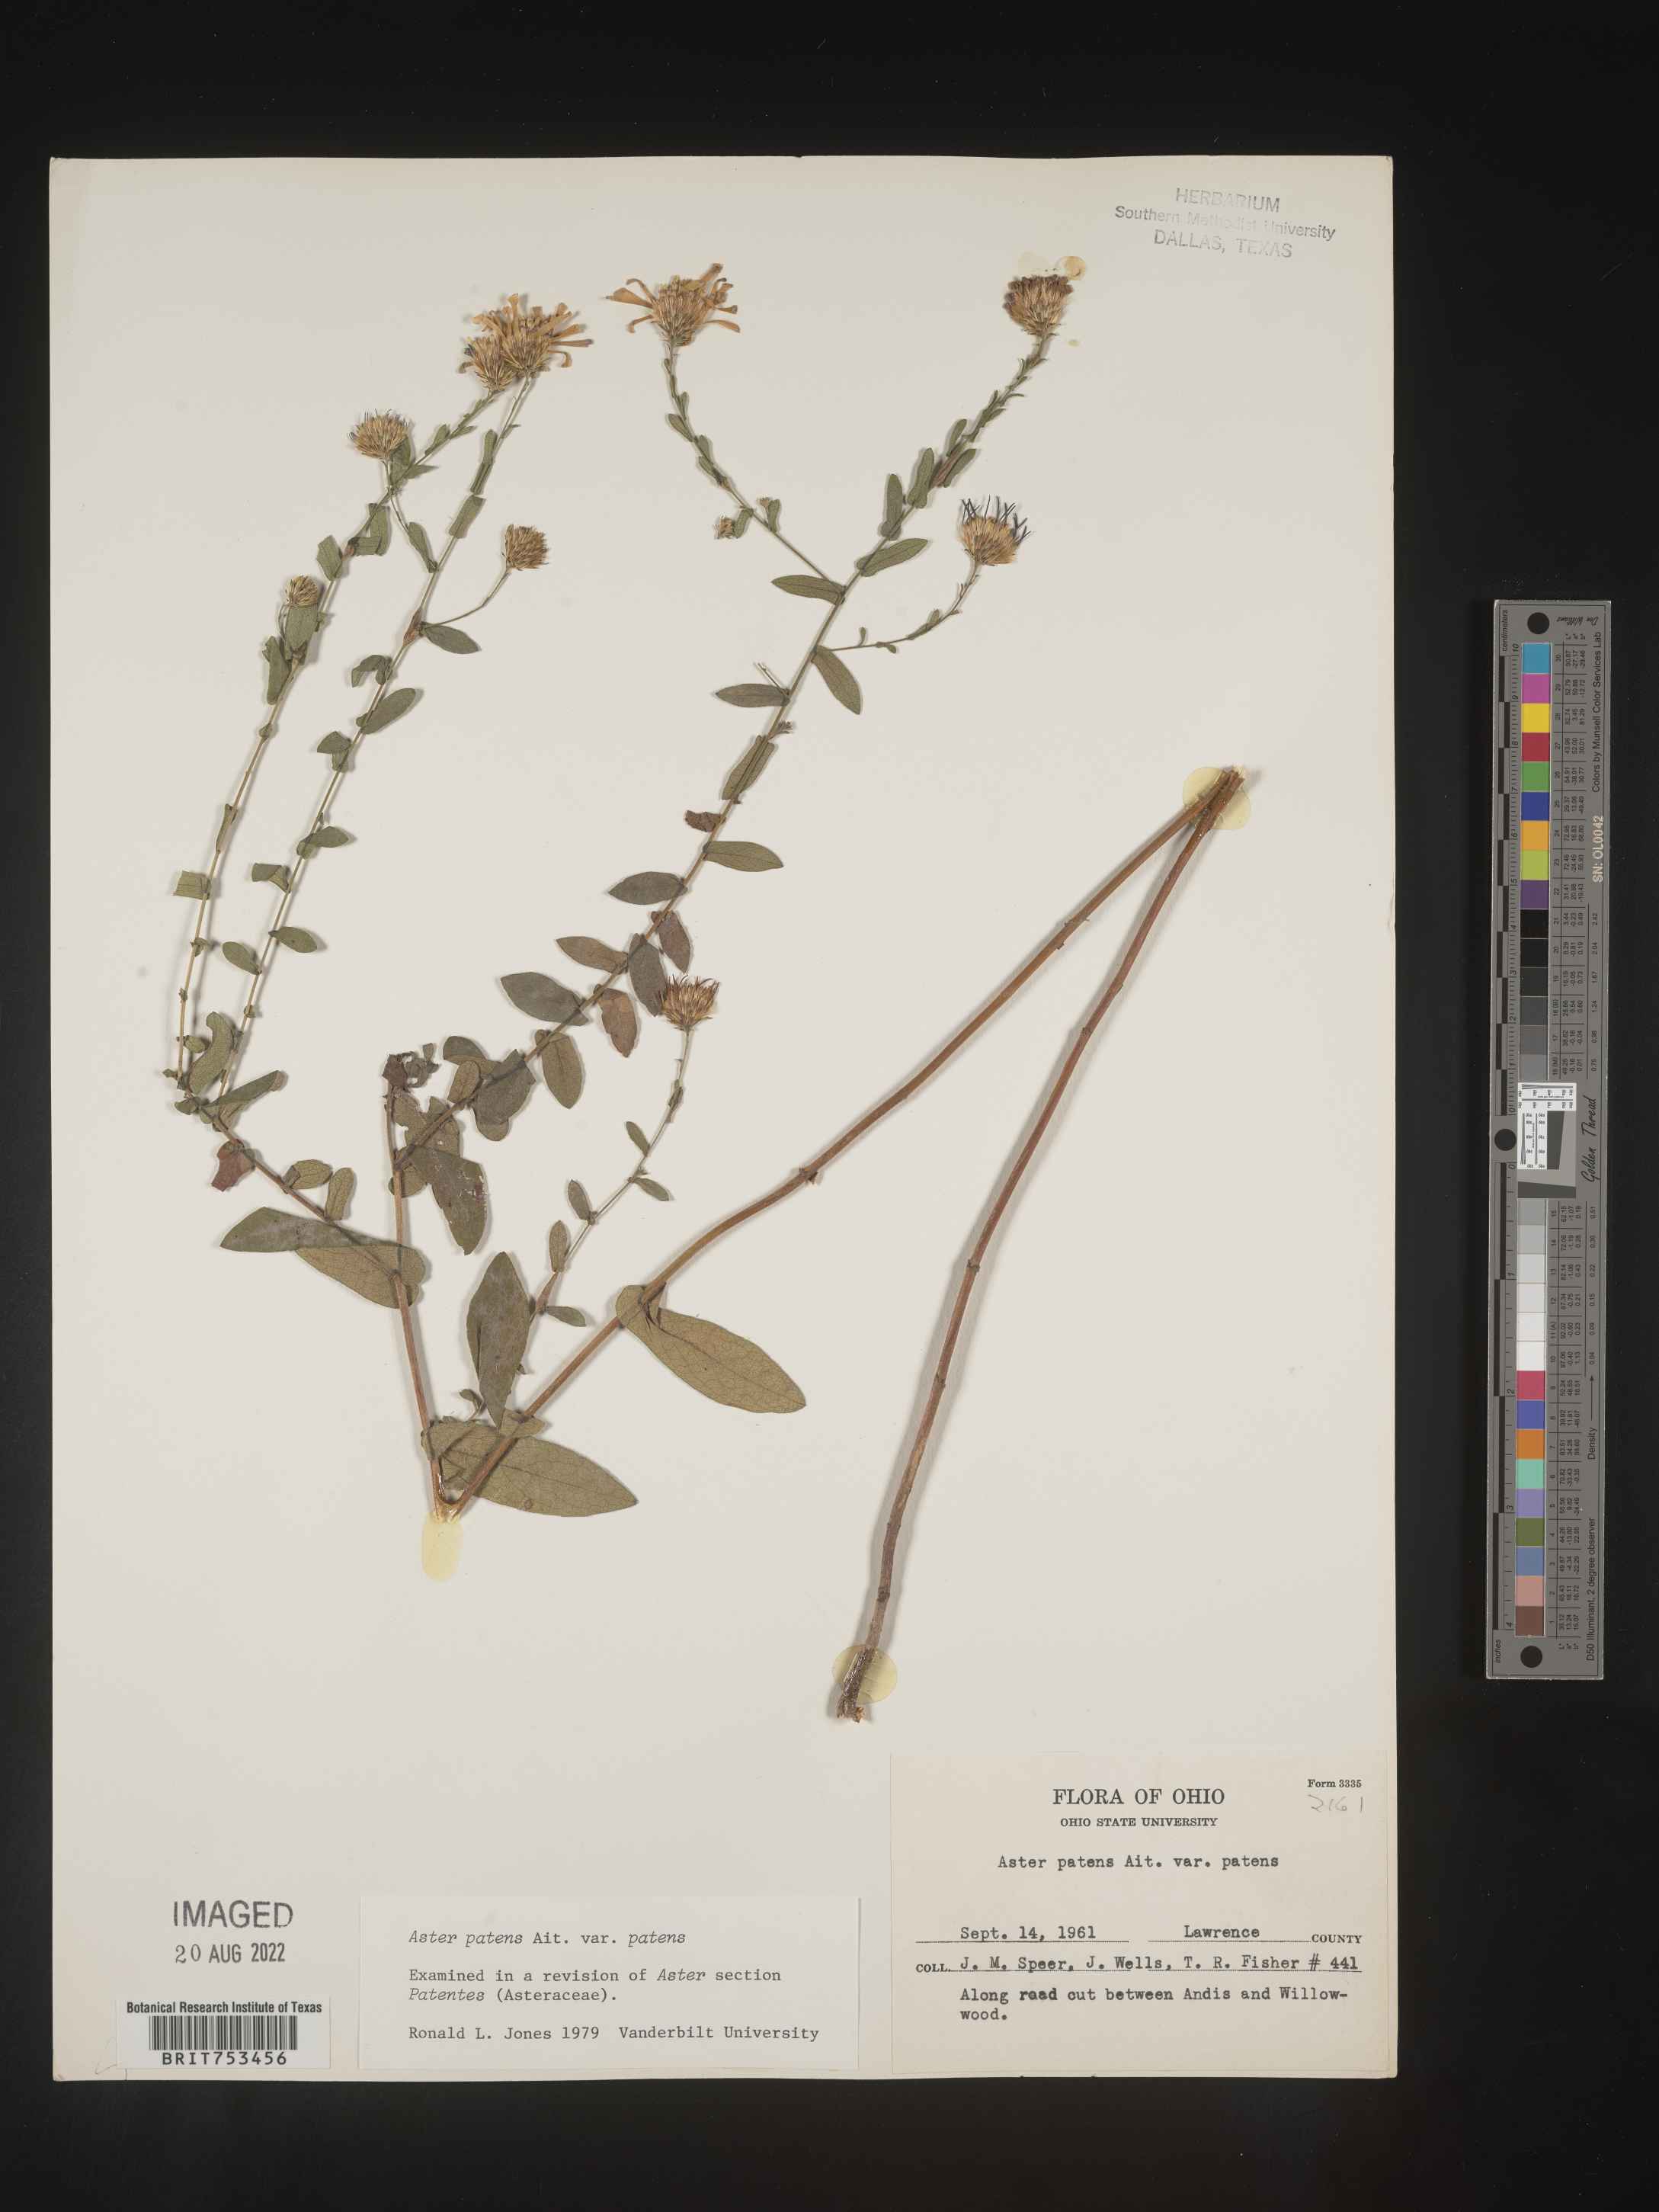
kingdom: Plantae
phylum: Tracheophyta
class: Magnoliopsida
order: Asterales
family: Asteraceae
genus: Symphyotrichum
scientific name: Symphyotrichum patens
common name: Late purple aster
